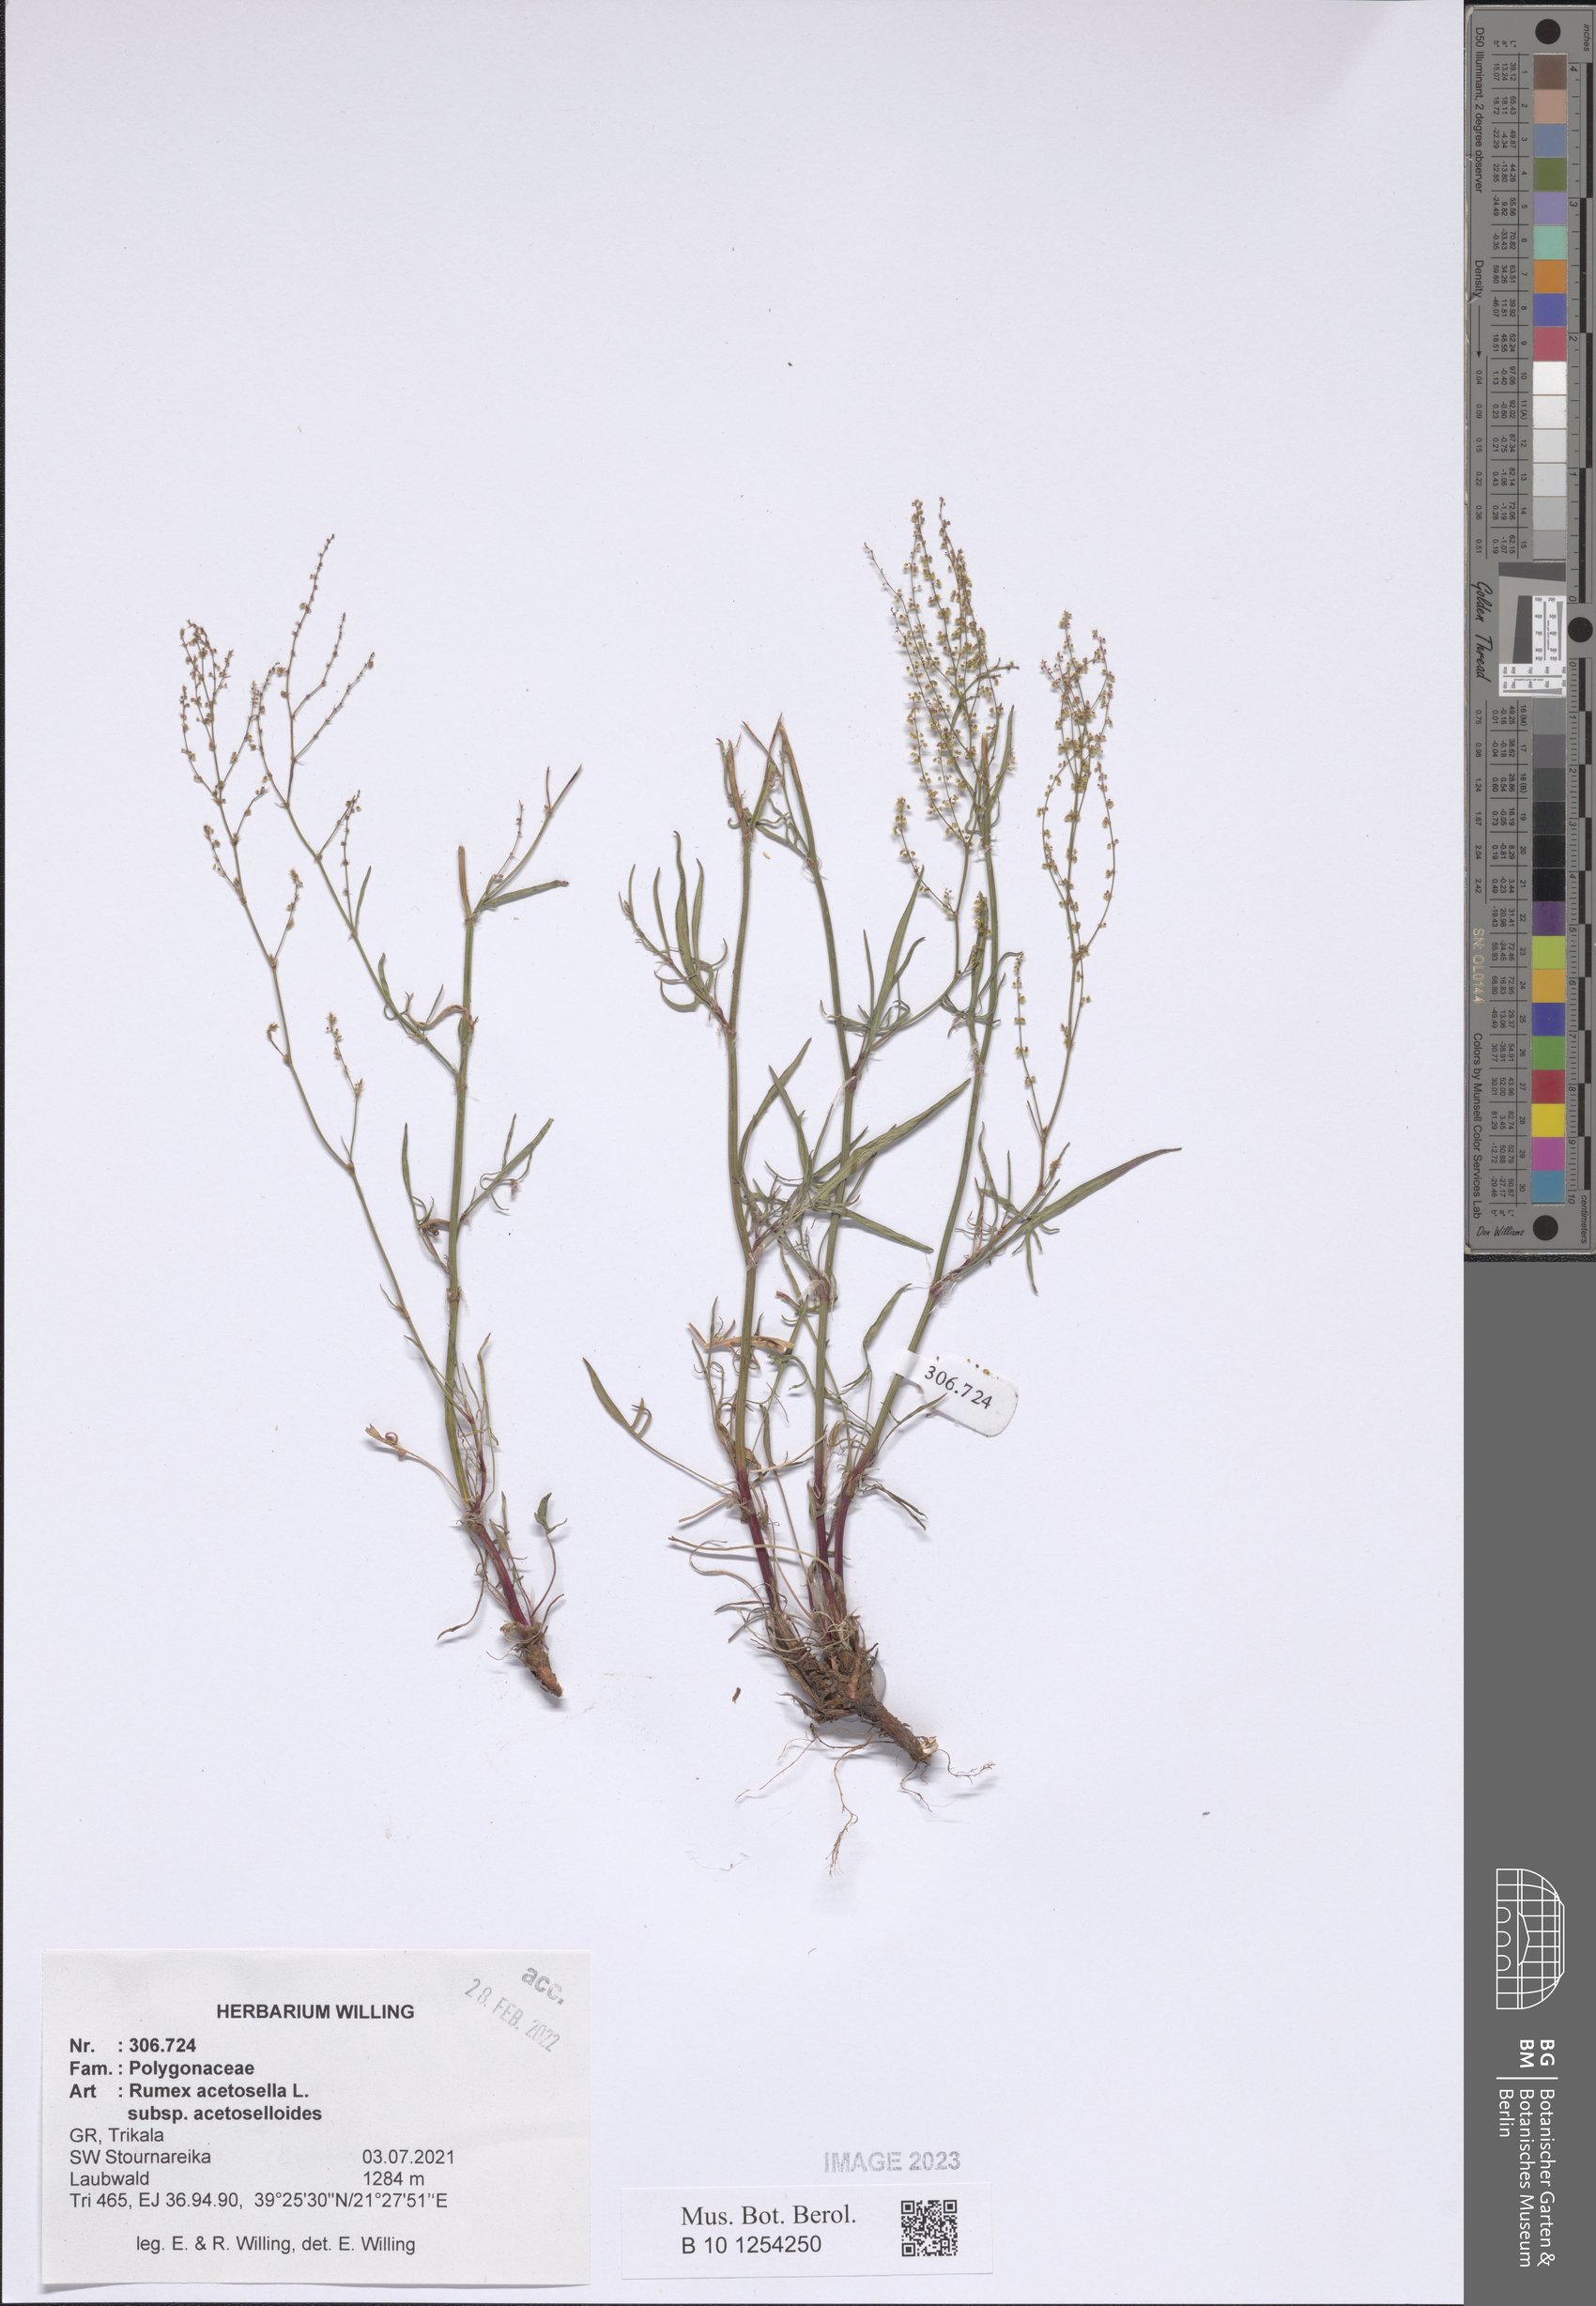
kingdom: Plantae
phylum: Tracheophyta
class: Magnoliopsida
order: Caryophyllales
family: Polygonaceae
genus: Rumex
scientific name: Rumex acetosella
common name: Common sheep sorrel
